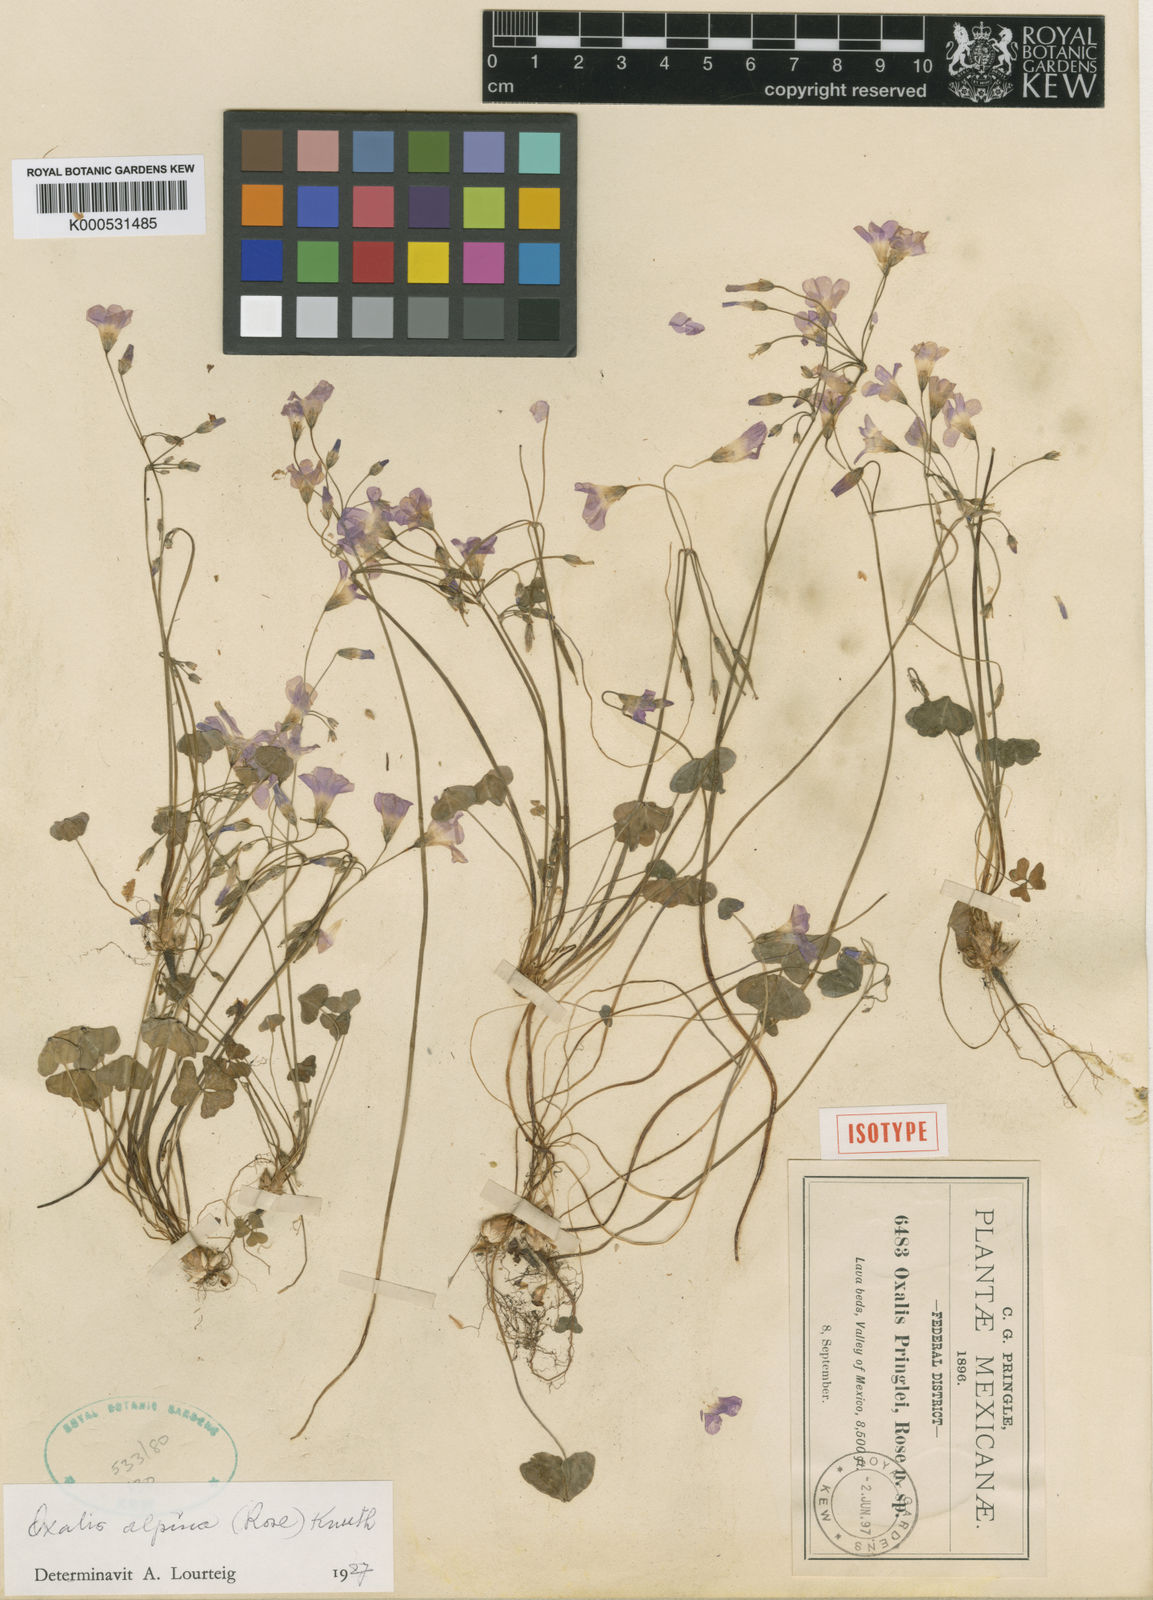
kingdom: Plantae
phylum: Tracheophyta
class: Magnoliopsida
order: Oxalidales
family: Oxalidaceae
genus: Oxalis
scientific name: Oxalis alpina
